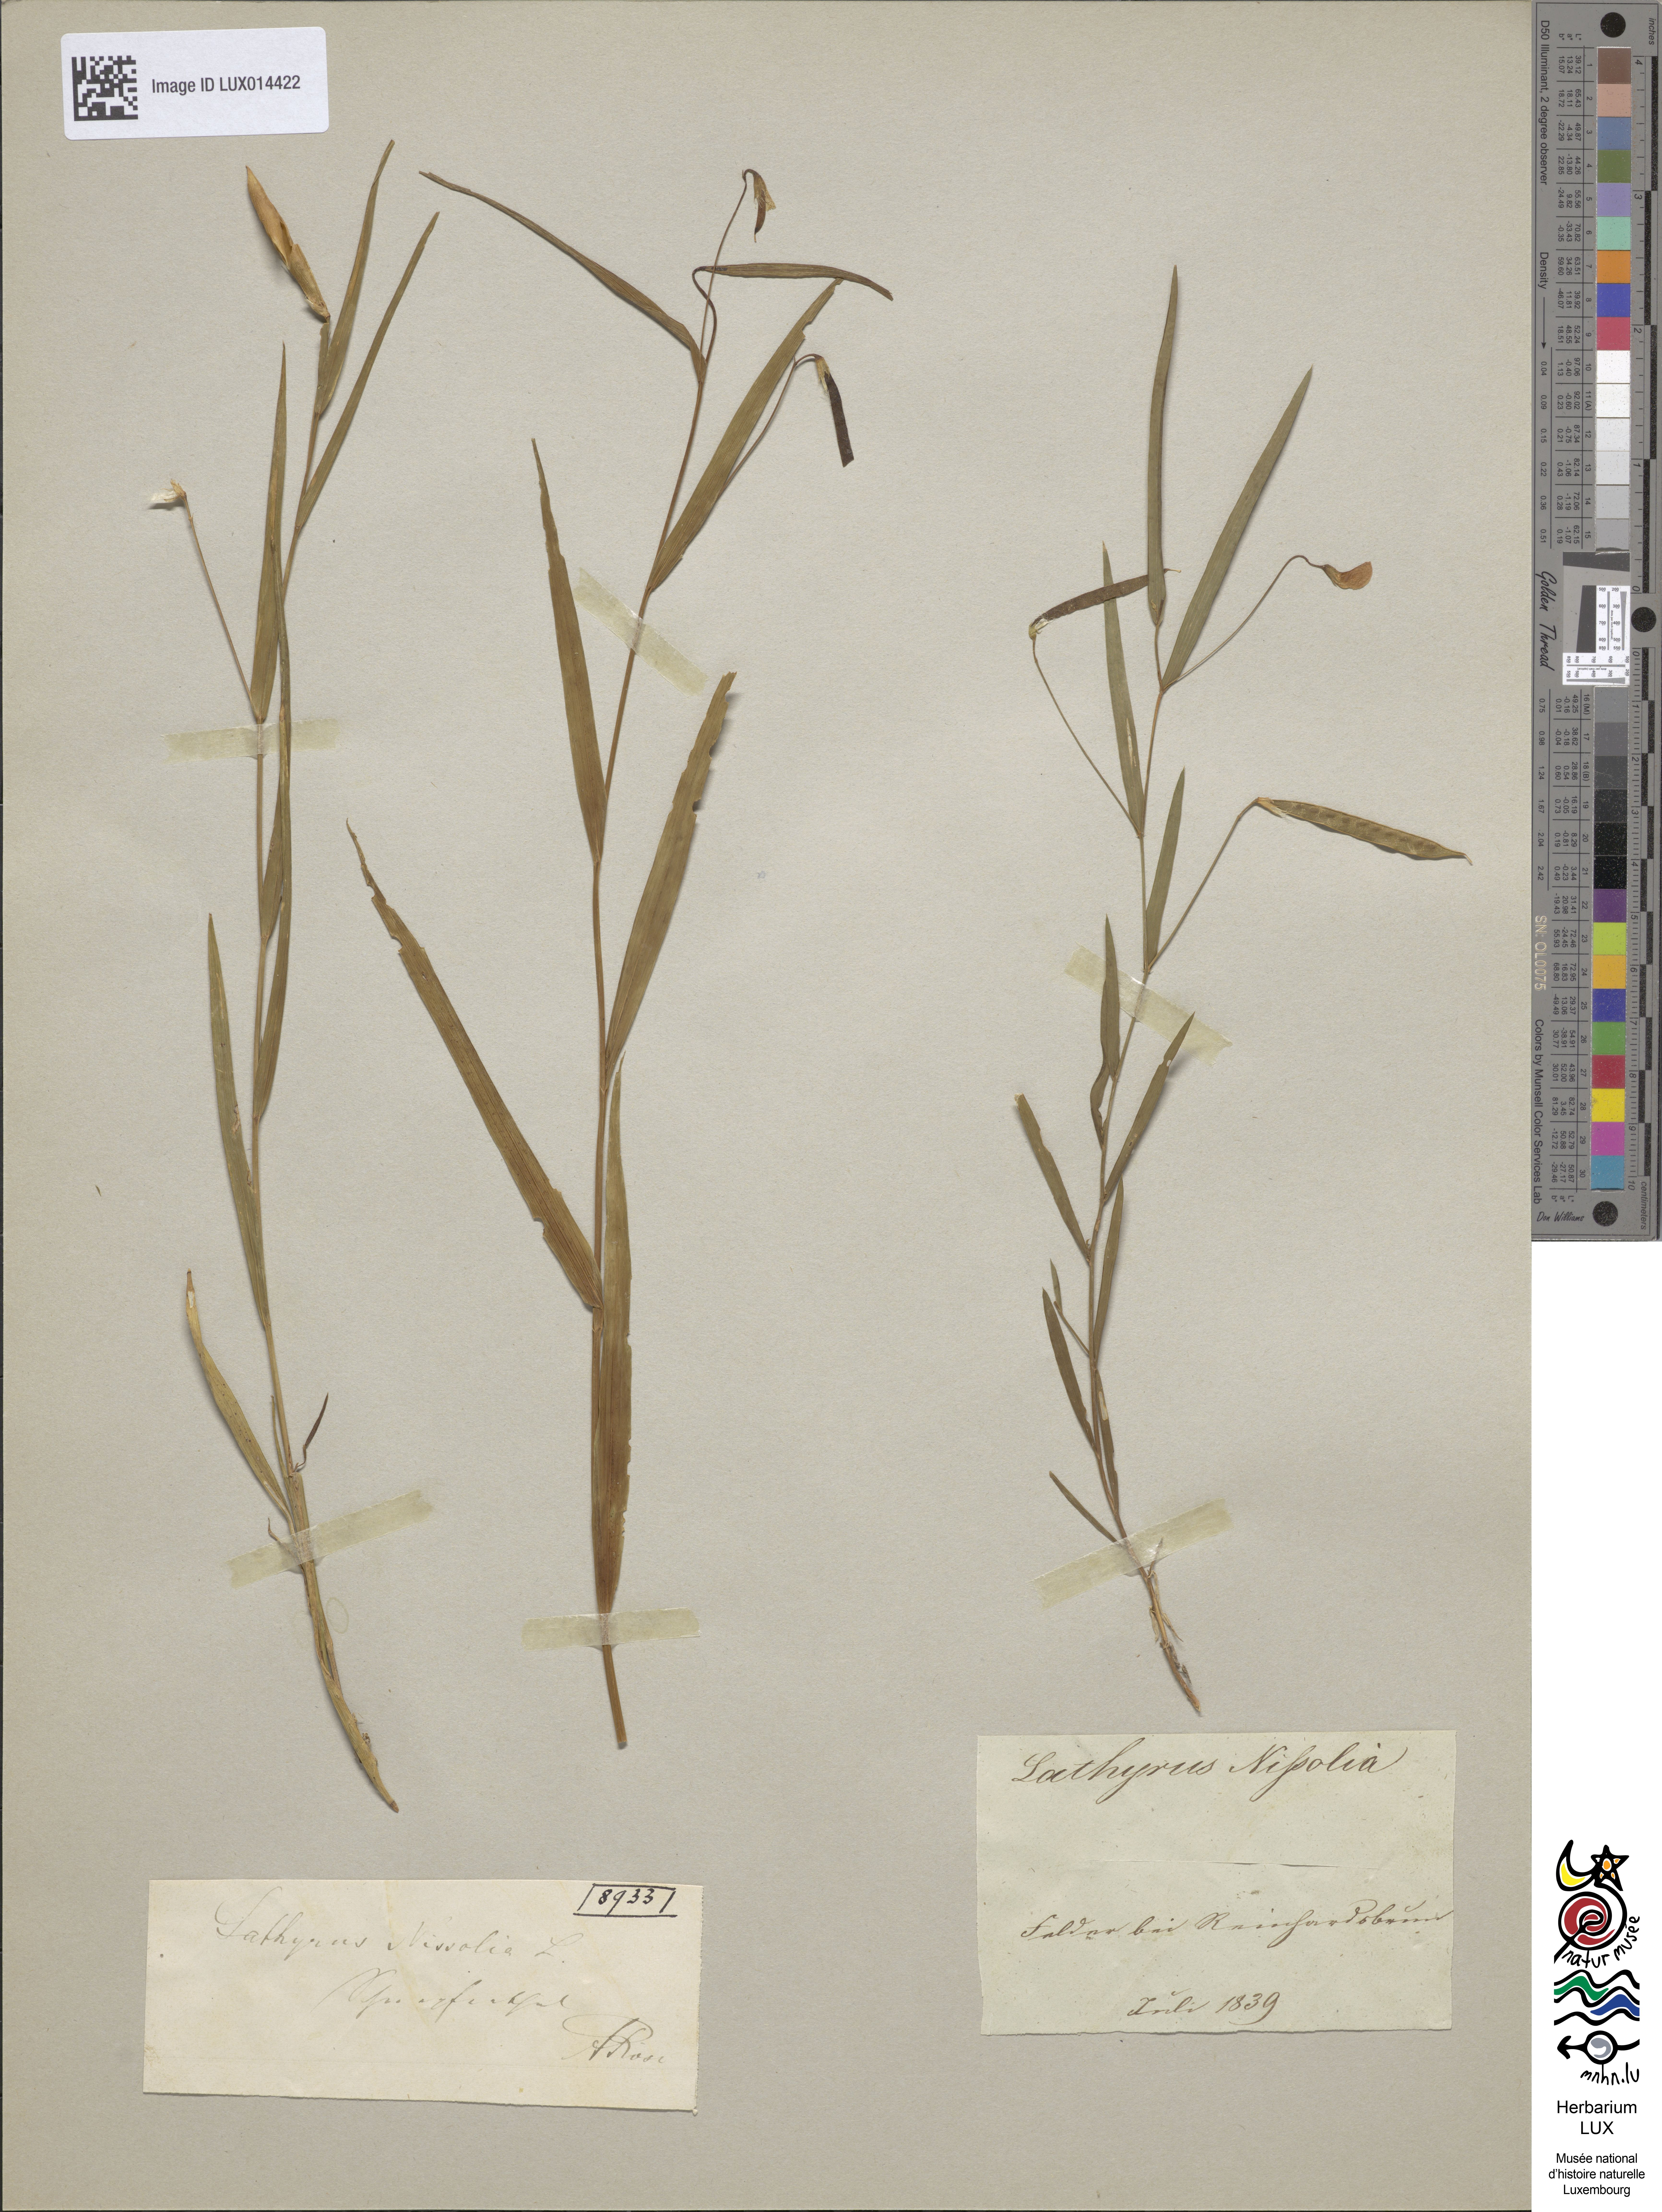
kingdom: Plantae
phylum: Tracheophyta
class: Magnoliopsida
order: Fabales
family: Fabaceae
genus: Lathyrus
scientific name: Lathyrus nissolia
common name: Grass vetchling
